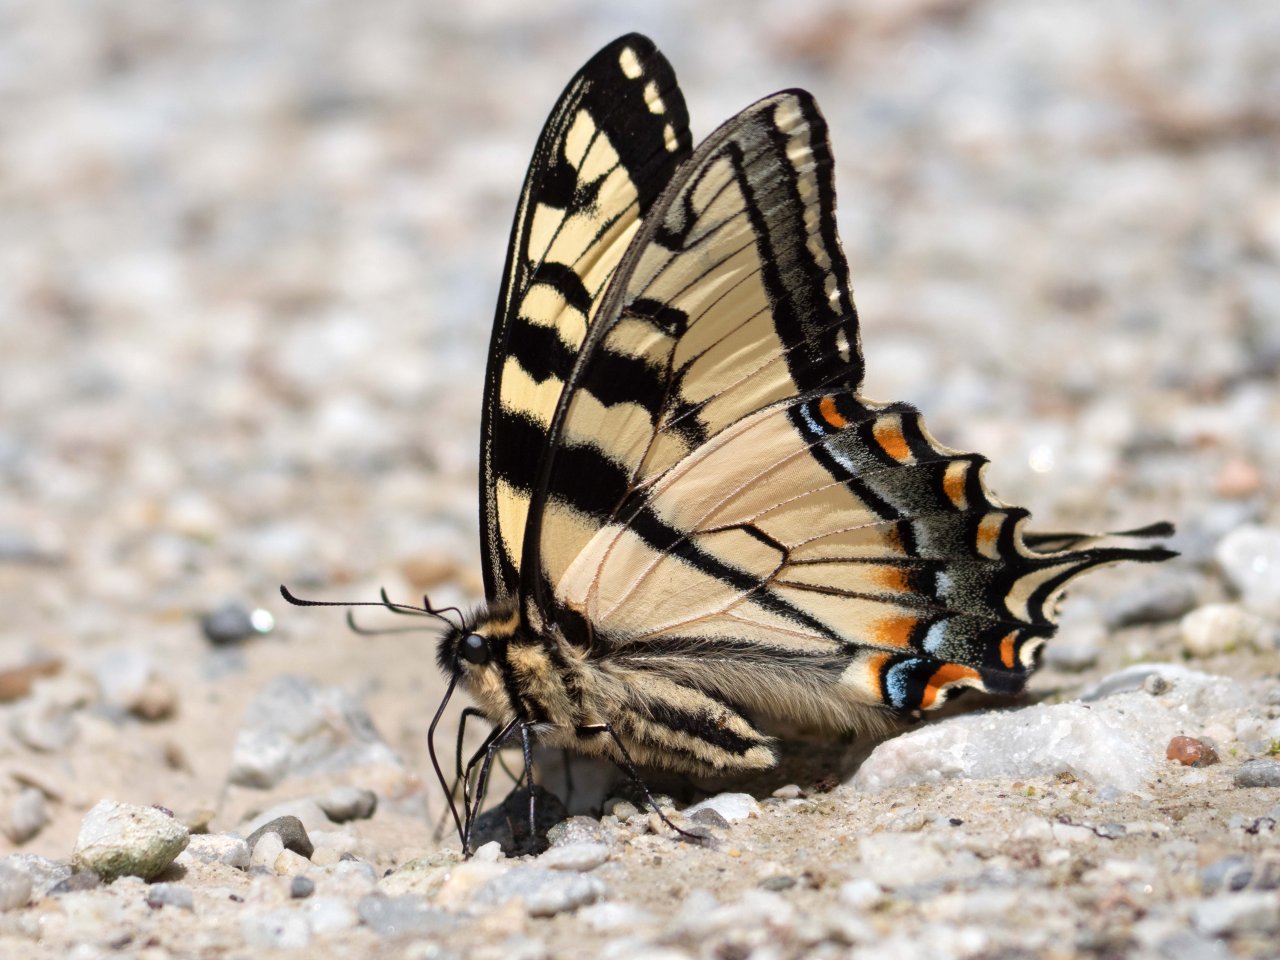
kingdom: Animalia
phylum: Arthropoda
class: Insecta
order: Lepidoptera
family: Papilionidae
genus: Pterourus
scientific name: Pterourus canadensis
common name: Canadian Tiger Swallowtail
